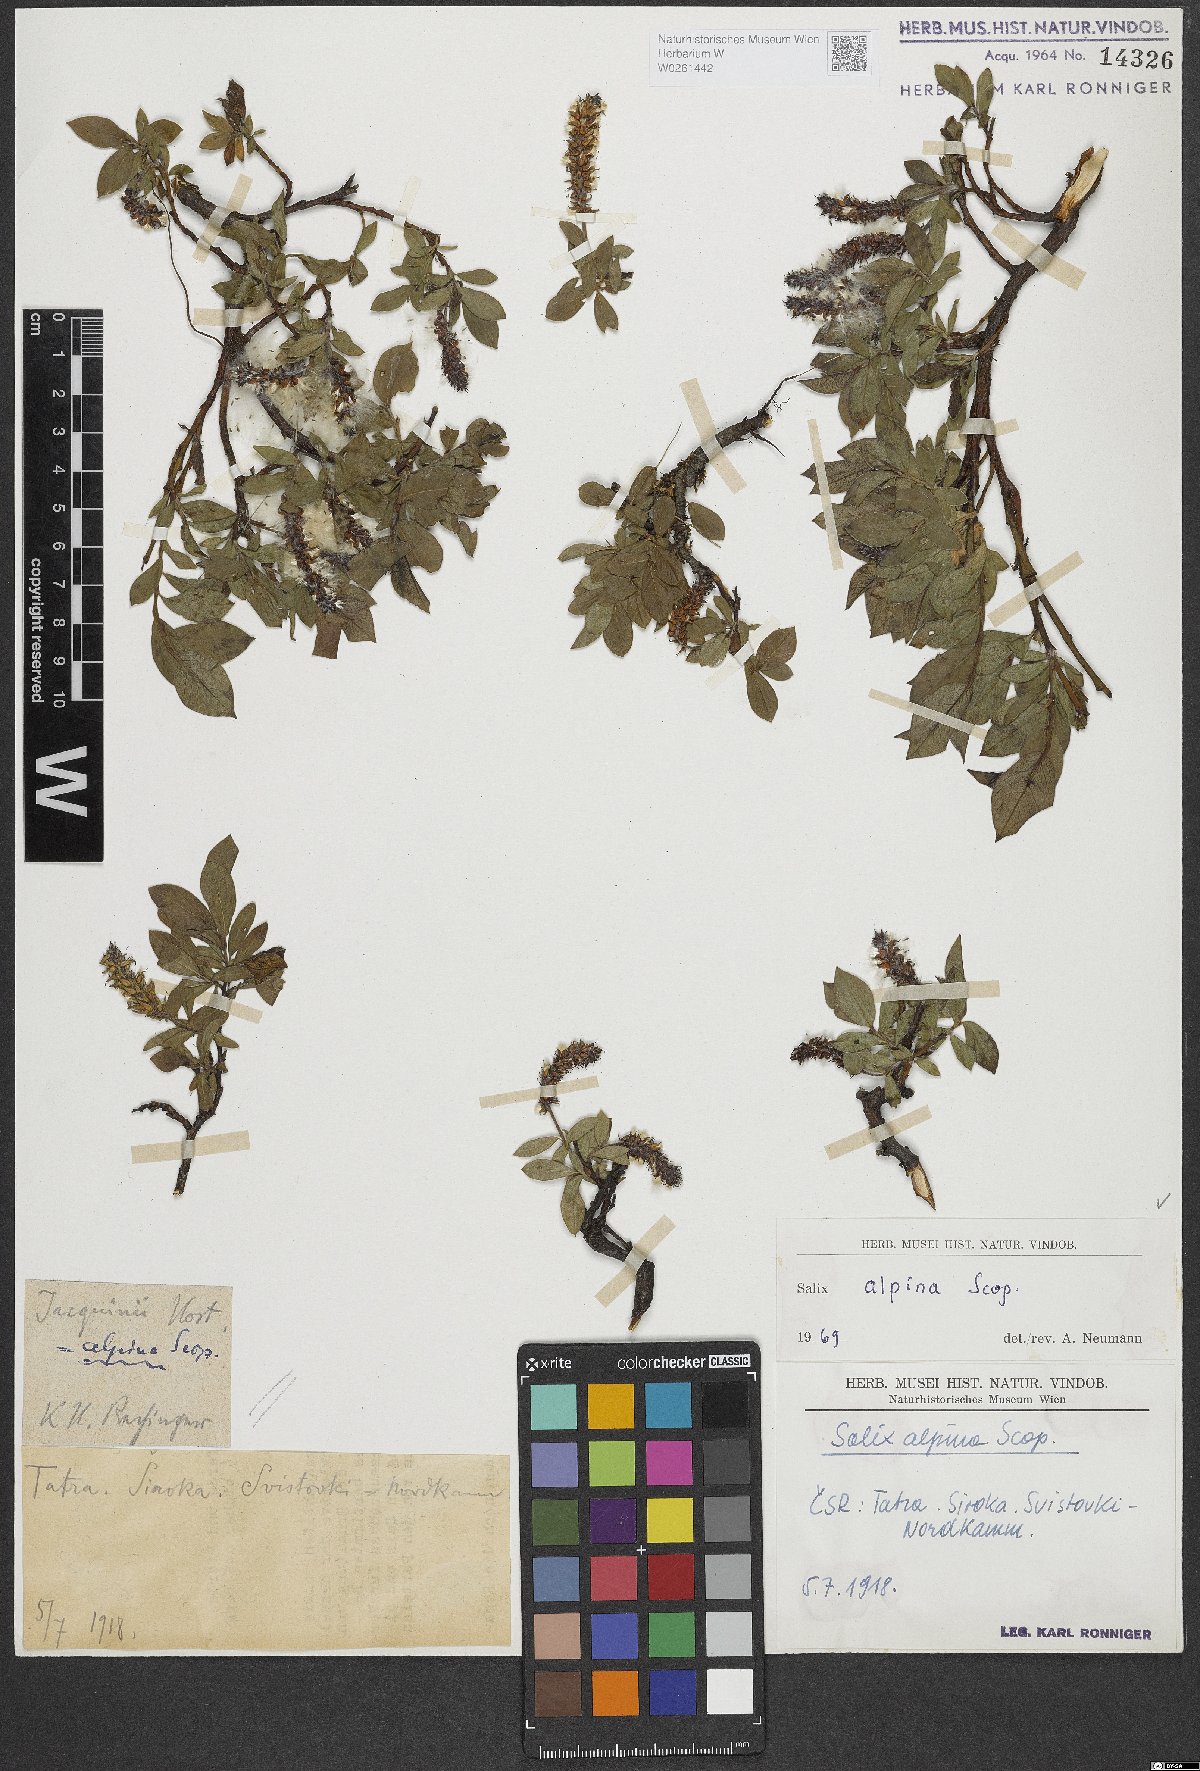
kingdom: Plantae
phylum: Tracheophyta
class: Magnoliopsida
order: Malpighiales
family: Salicaceae
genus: Salix
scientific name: Salix alpina
